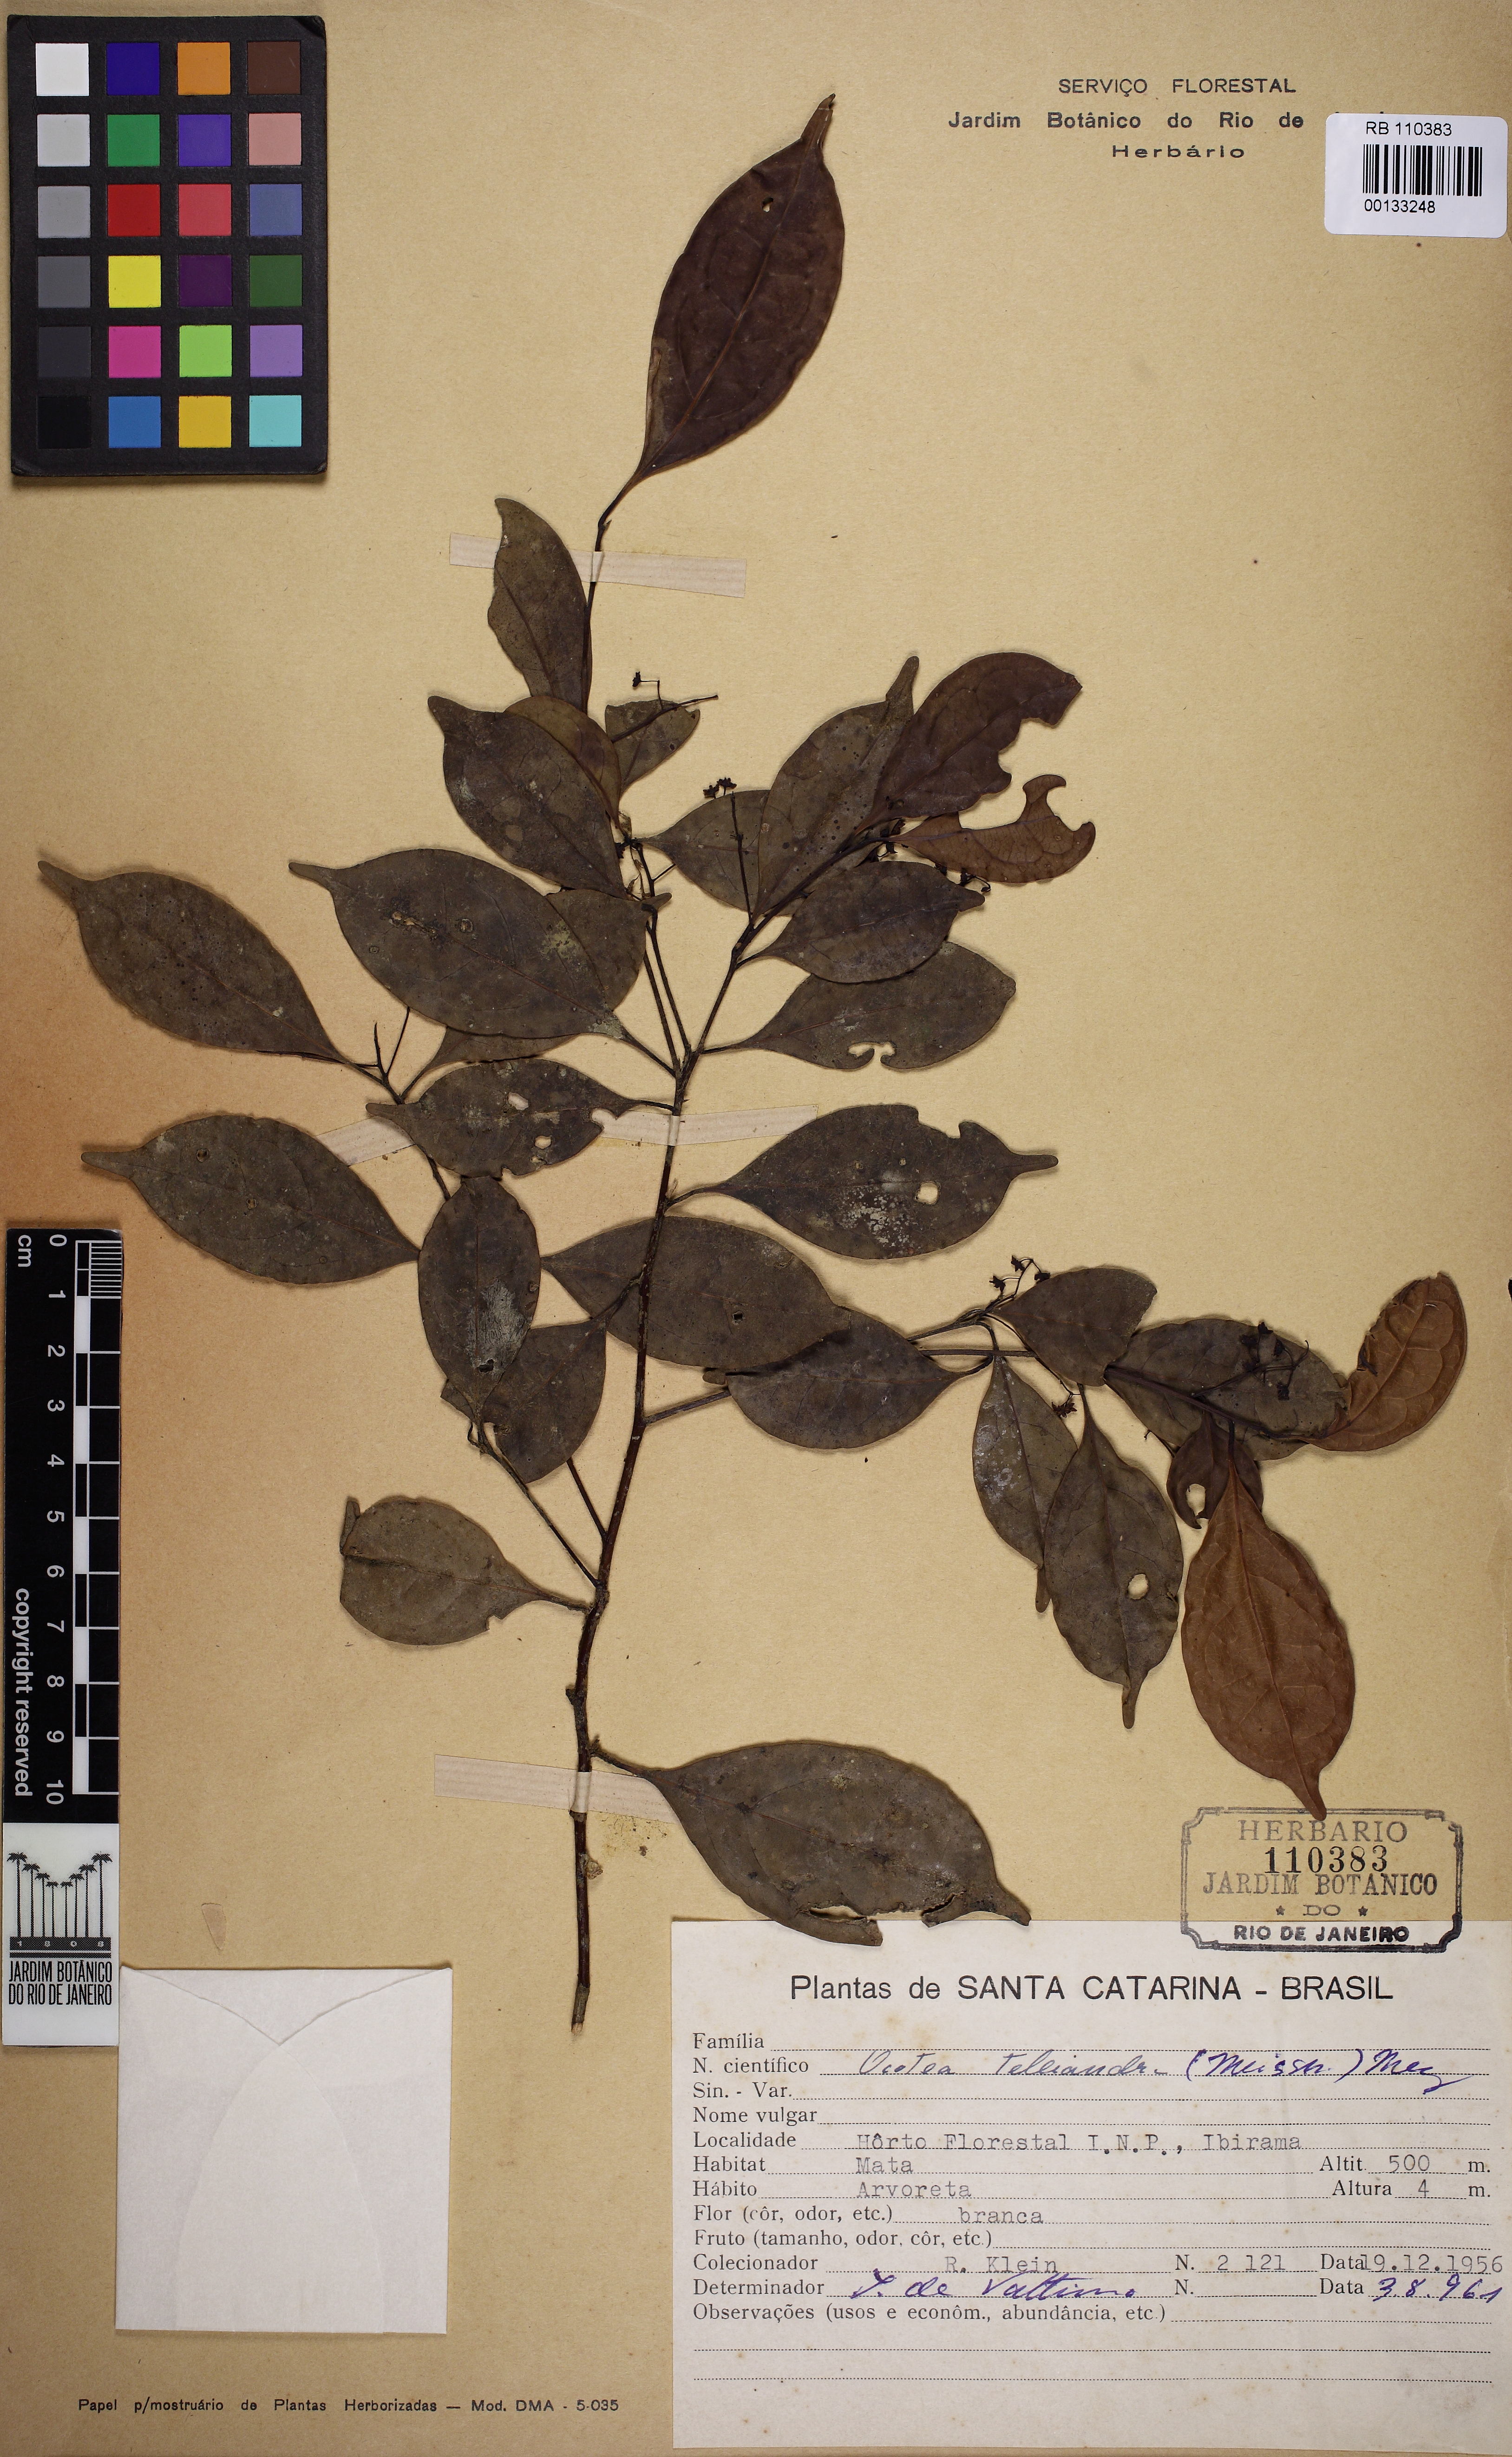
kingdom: Plantae
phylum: Tracheophyta
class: Magnoliopsida
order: Laurales
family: Lauraceae
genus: Ocotea
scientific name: Ocotea teleiandra
